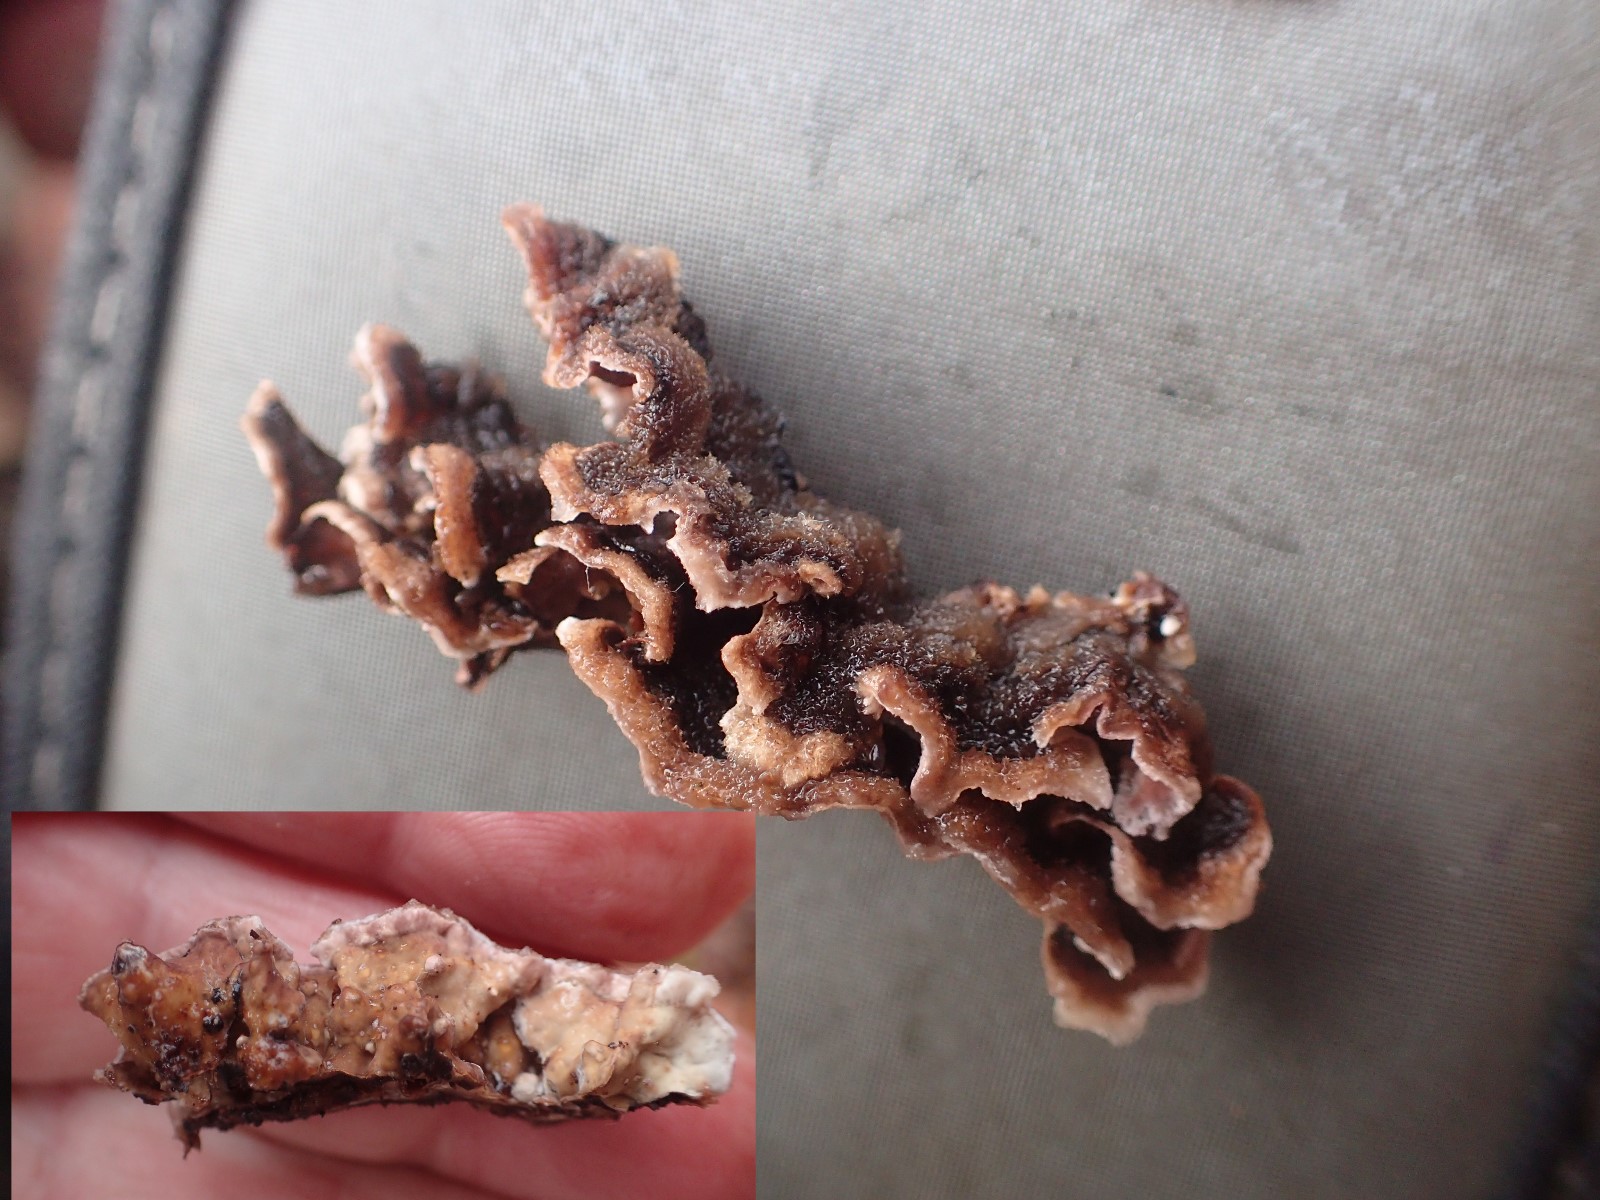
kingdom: Fungi
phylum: Basidiomycota
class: Agaricomycetes
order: Hymenochaetales
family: Hymenochaetaceae
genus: Hymenochaete
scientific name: Hymenochaete rubiginosa
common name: stiv ruslædersvamp
